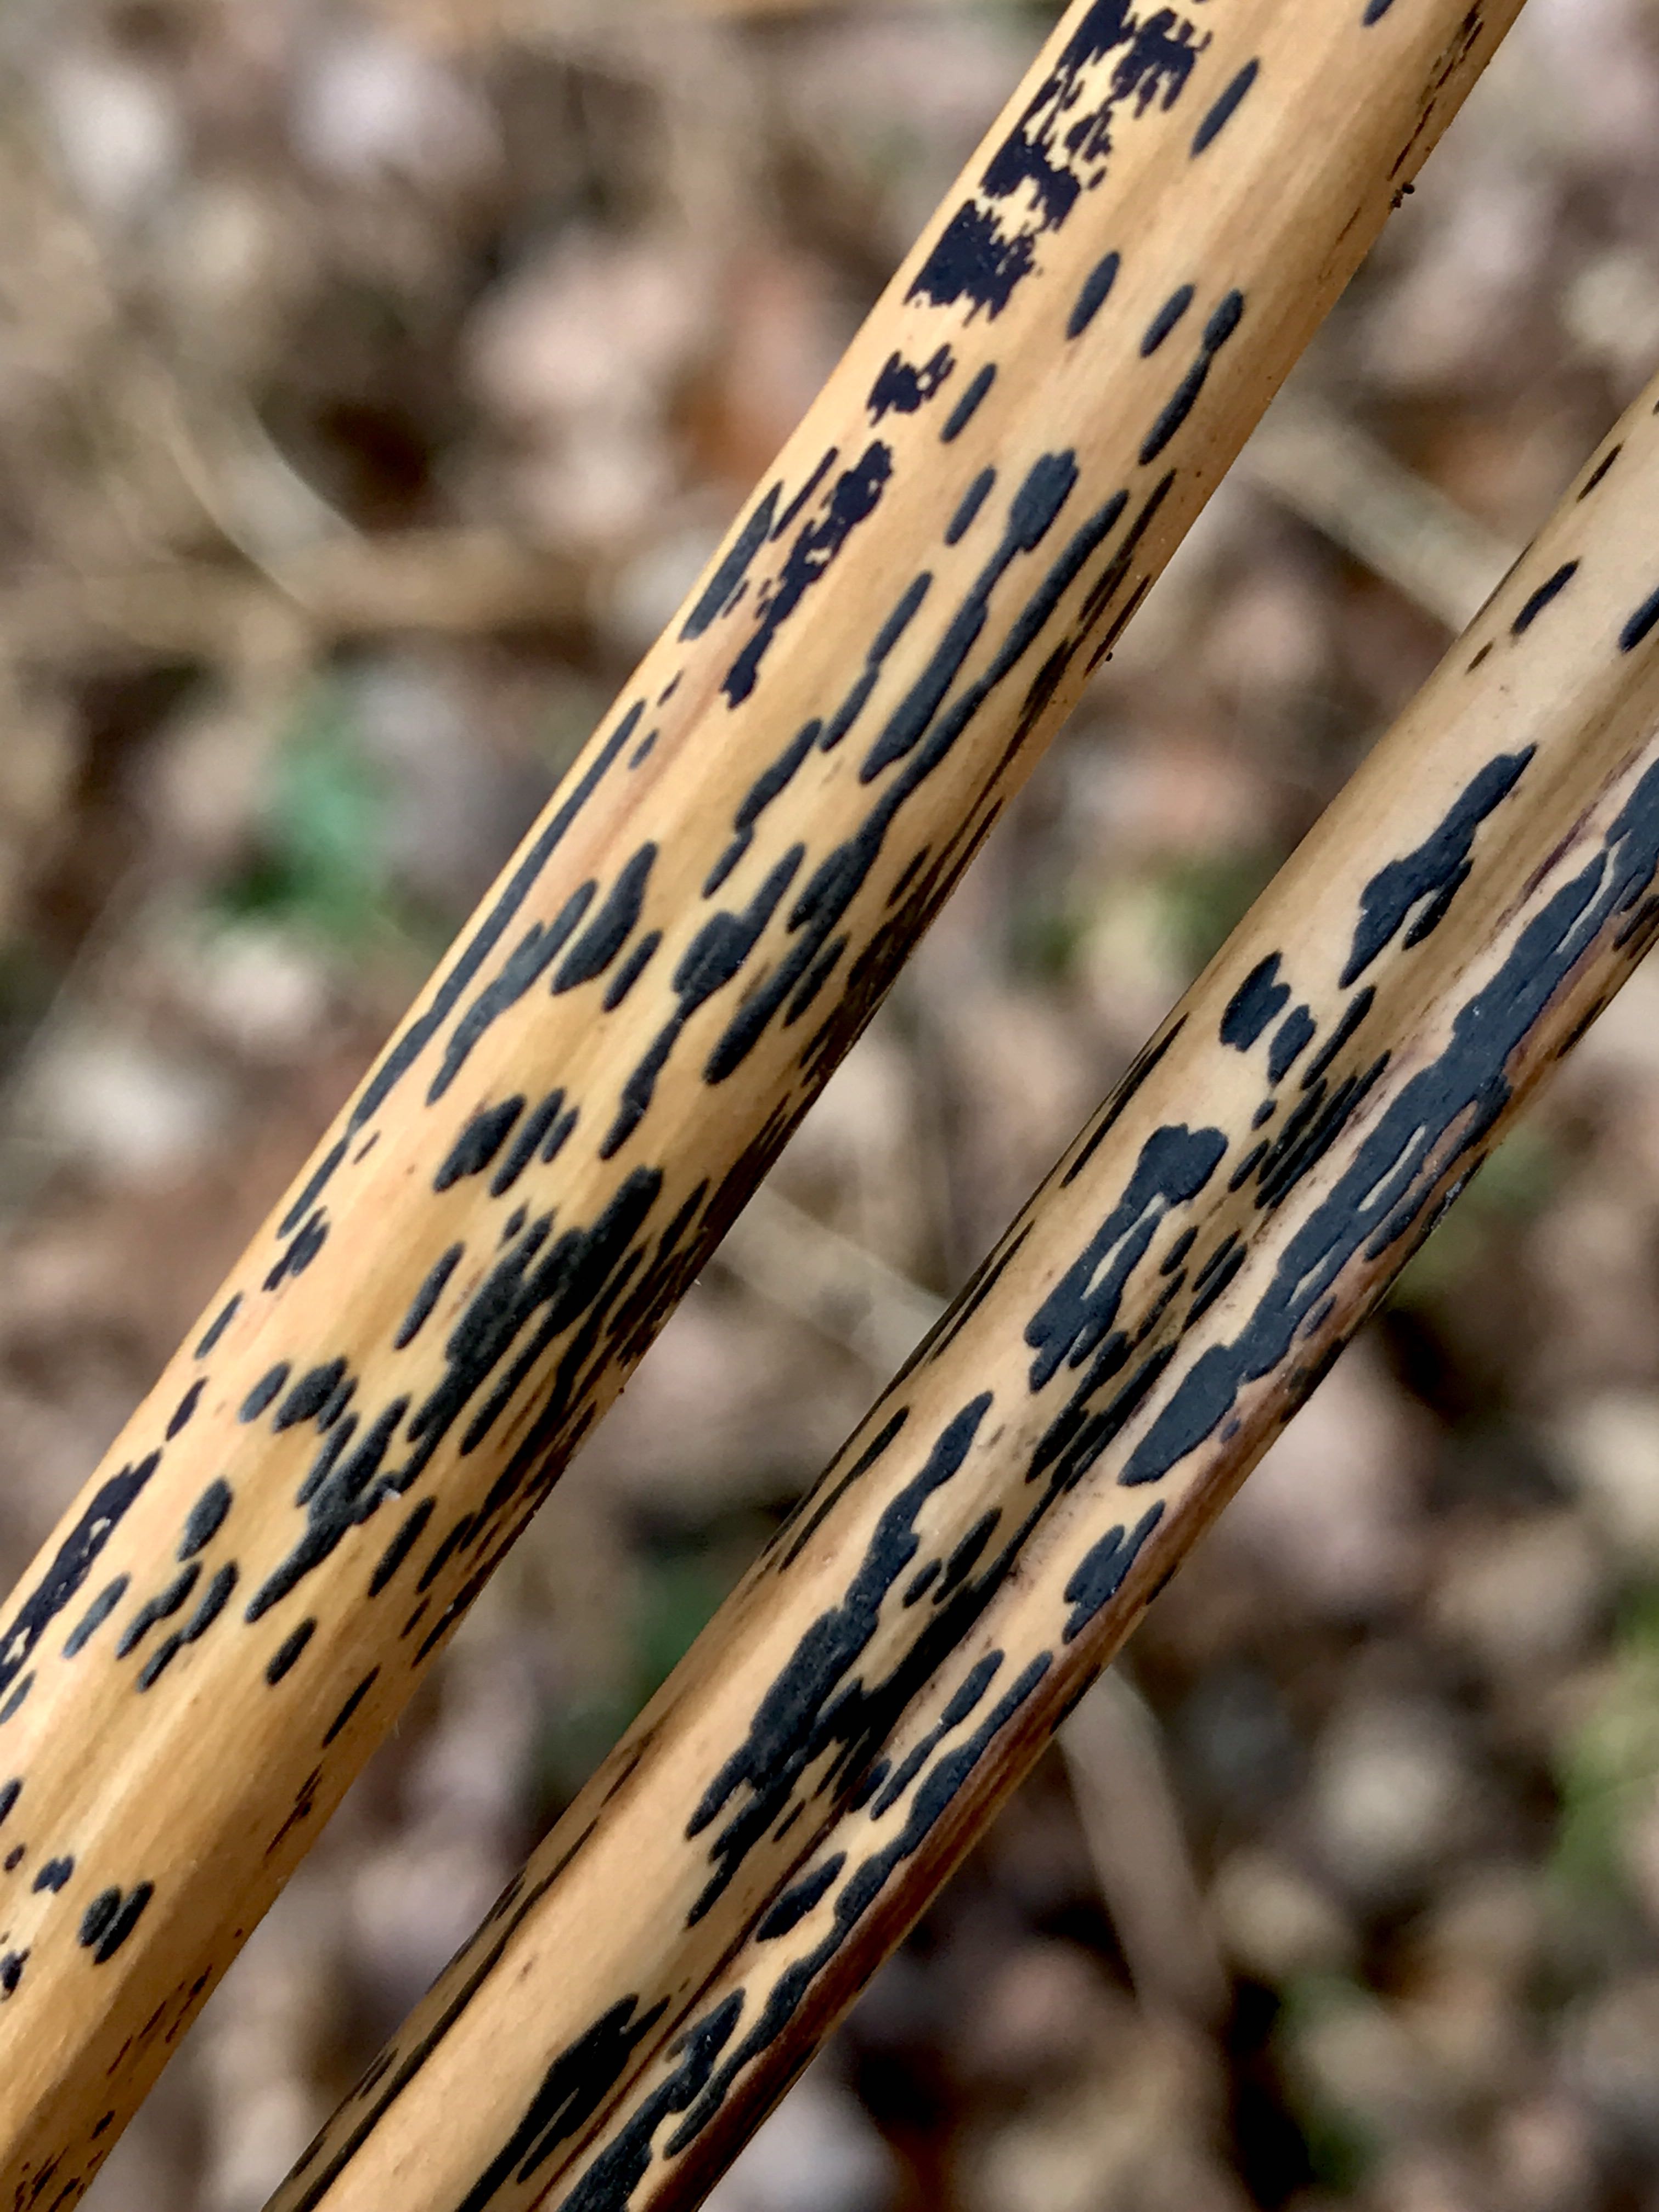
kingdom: Fungi
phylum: Ascomycota
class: Dothideomycetes
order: Pleosporales
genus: Rhopographus
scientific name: Rhopographus filicinus
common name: Bracken map
